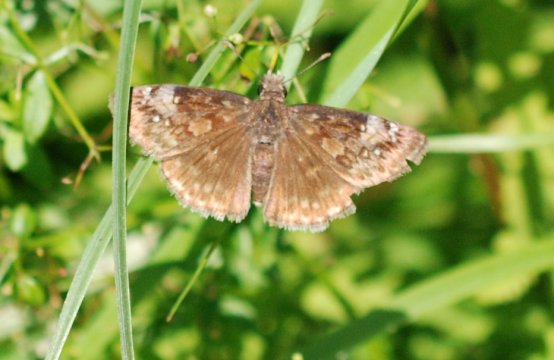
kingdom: Animalia
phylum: Arthropoda
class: Insecta
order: Lepidoptera
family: Hesperiidae
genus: Gesta
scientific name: Gesta
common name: Horace's Duskywing
